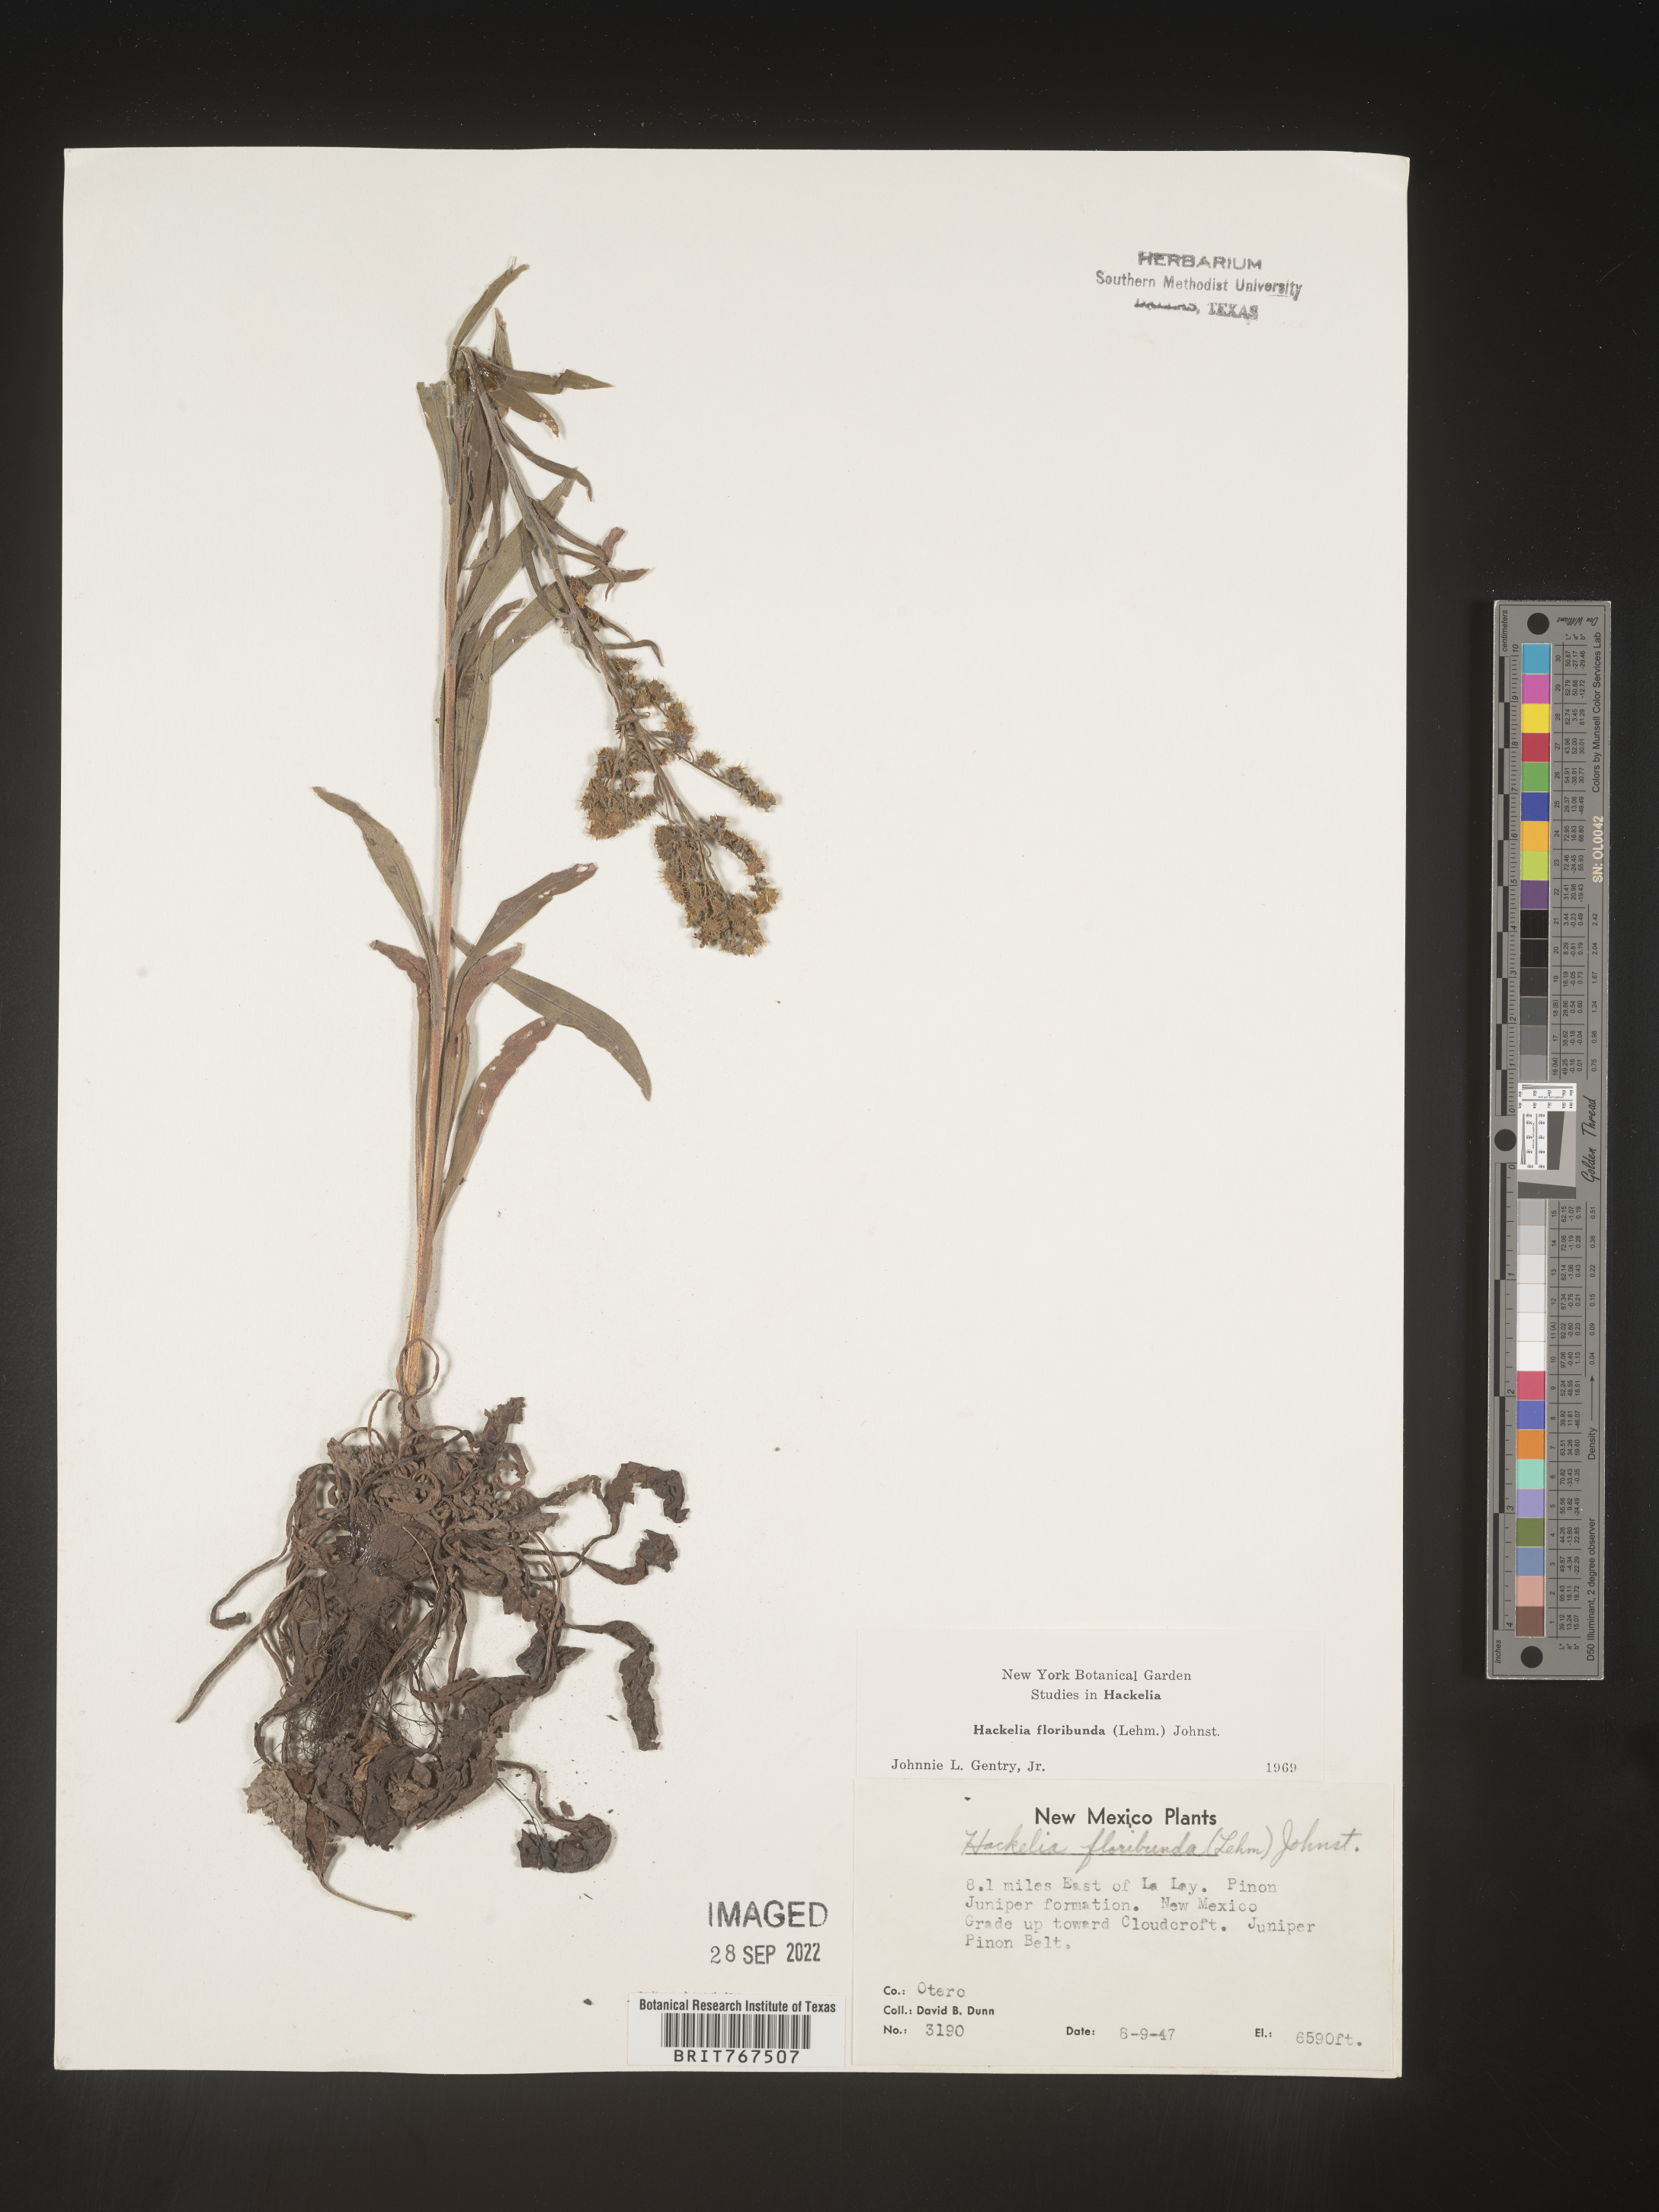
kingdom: Plantae
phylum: Tracheophyta
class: Magnoliopsida
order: Boraginales
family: Boraginaceae
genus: Hackelia
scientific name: Hackelia floribunda
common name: Large-flowered stickseed
